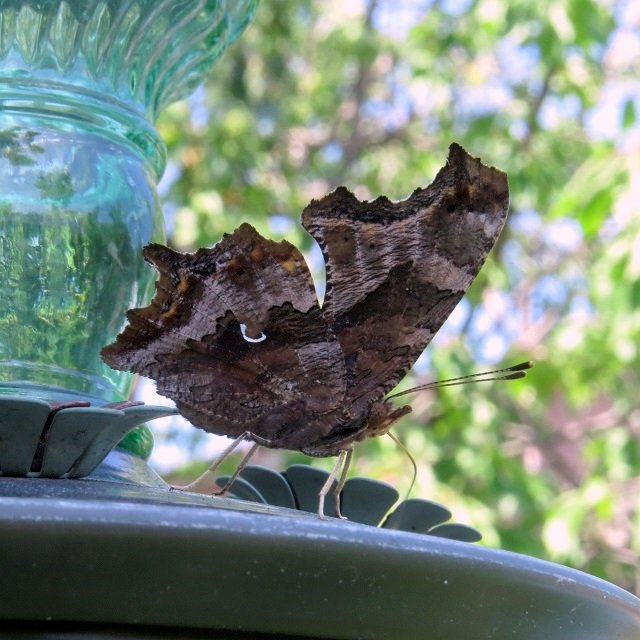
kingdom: Animalia
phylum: Arthropoda
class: Insecta
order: Lepidoptera
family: Nymphalidae
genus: Polygonia
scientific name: Polygonia comma
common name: Eastern Comma
